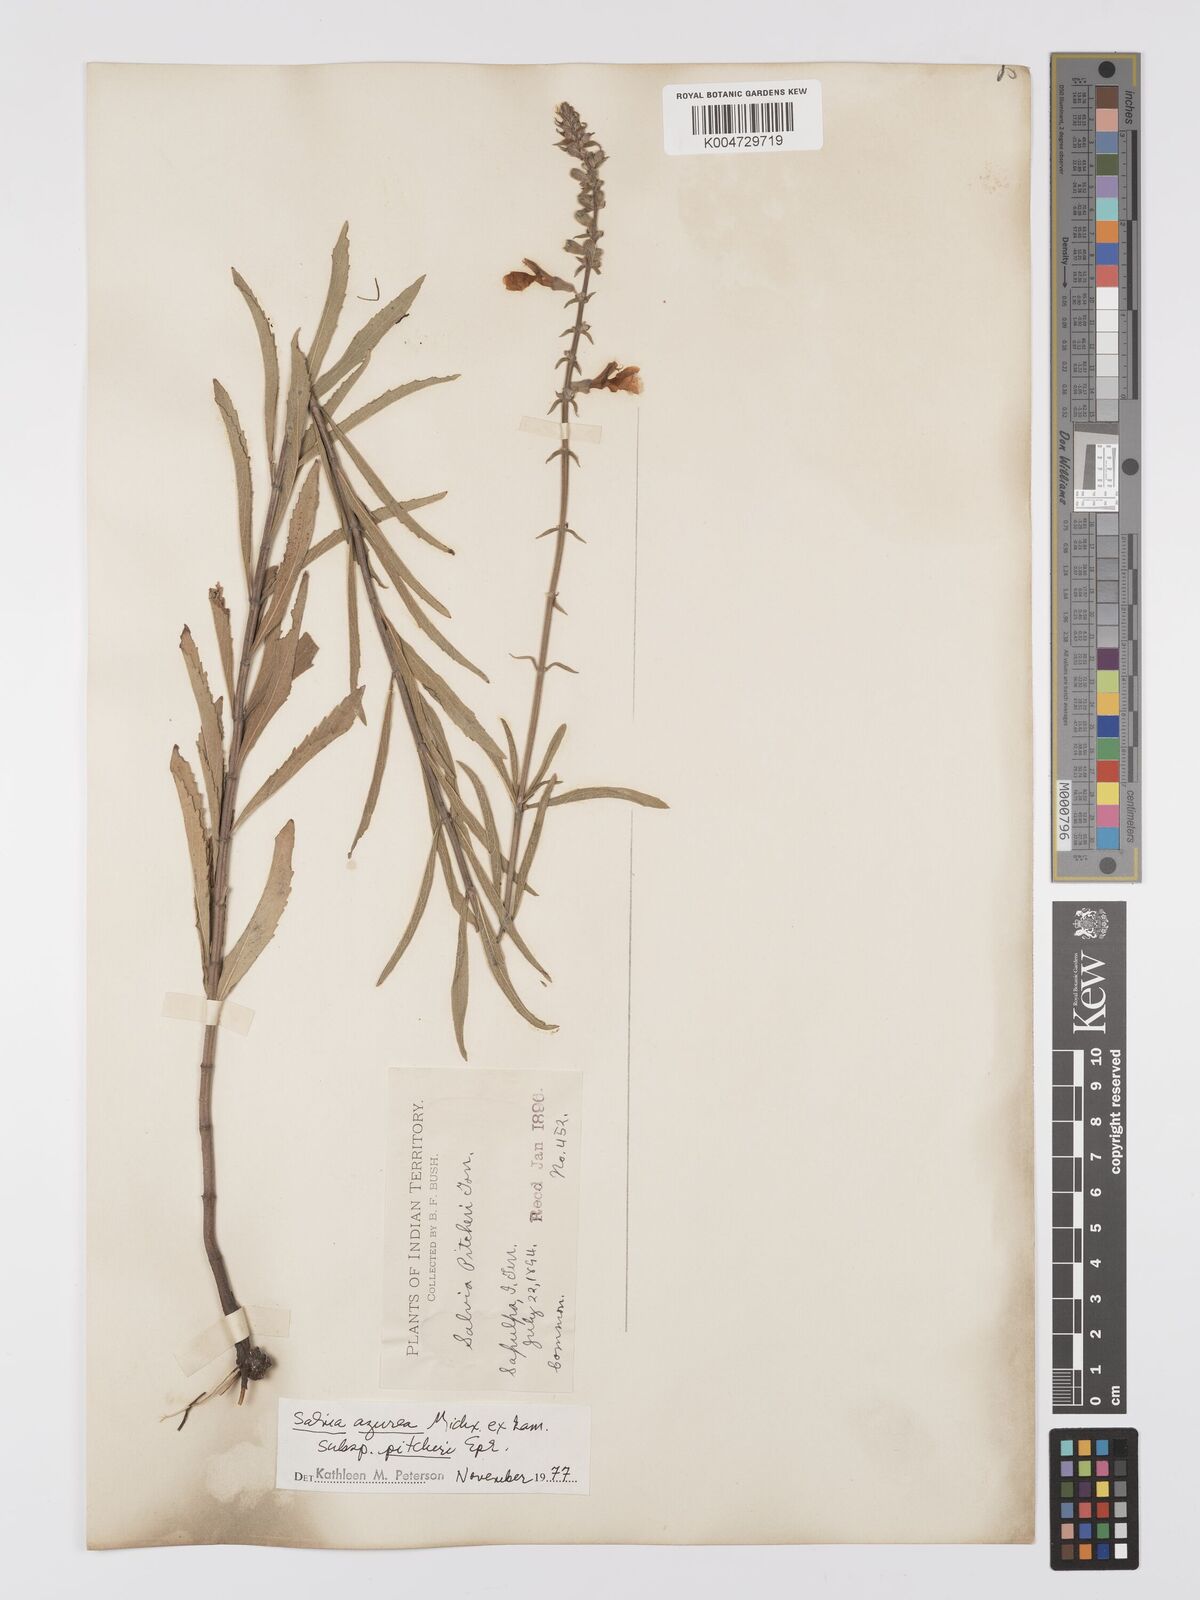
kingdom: Plantae
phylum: Tracheophyta
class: Magnoliopsida
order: Lamiales
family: Lamiaceae
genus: Salvia
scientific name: Salvia azurea
